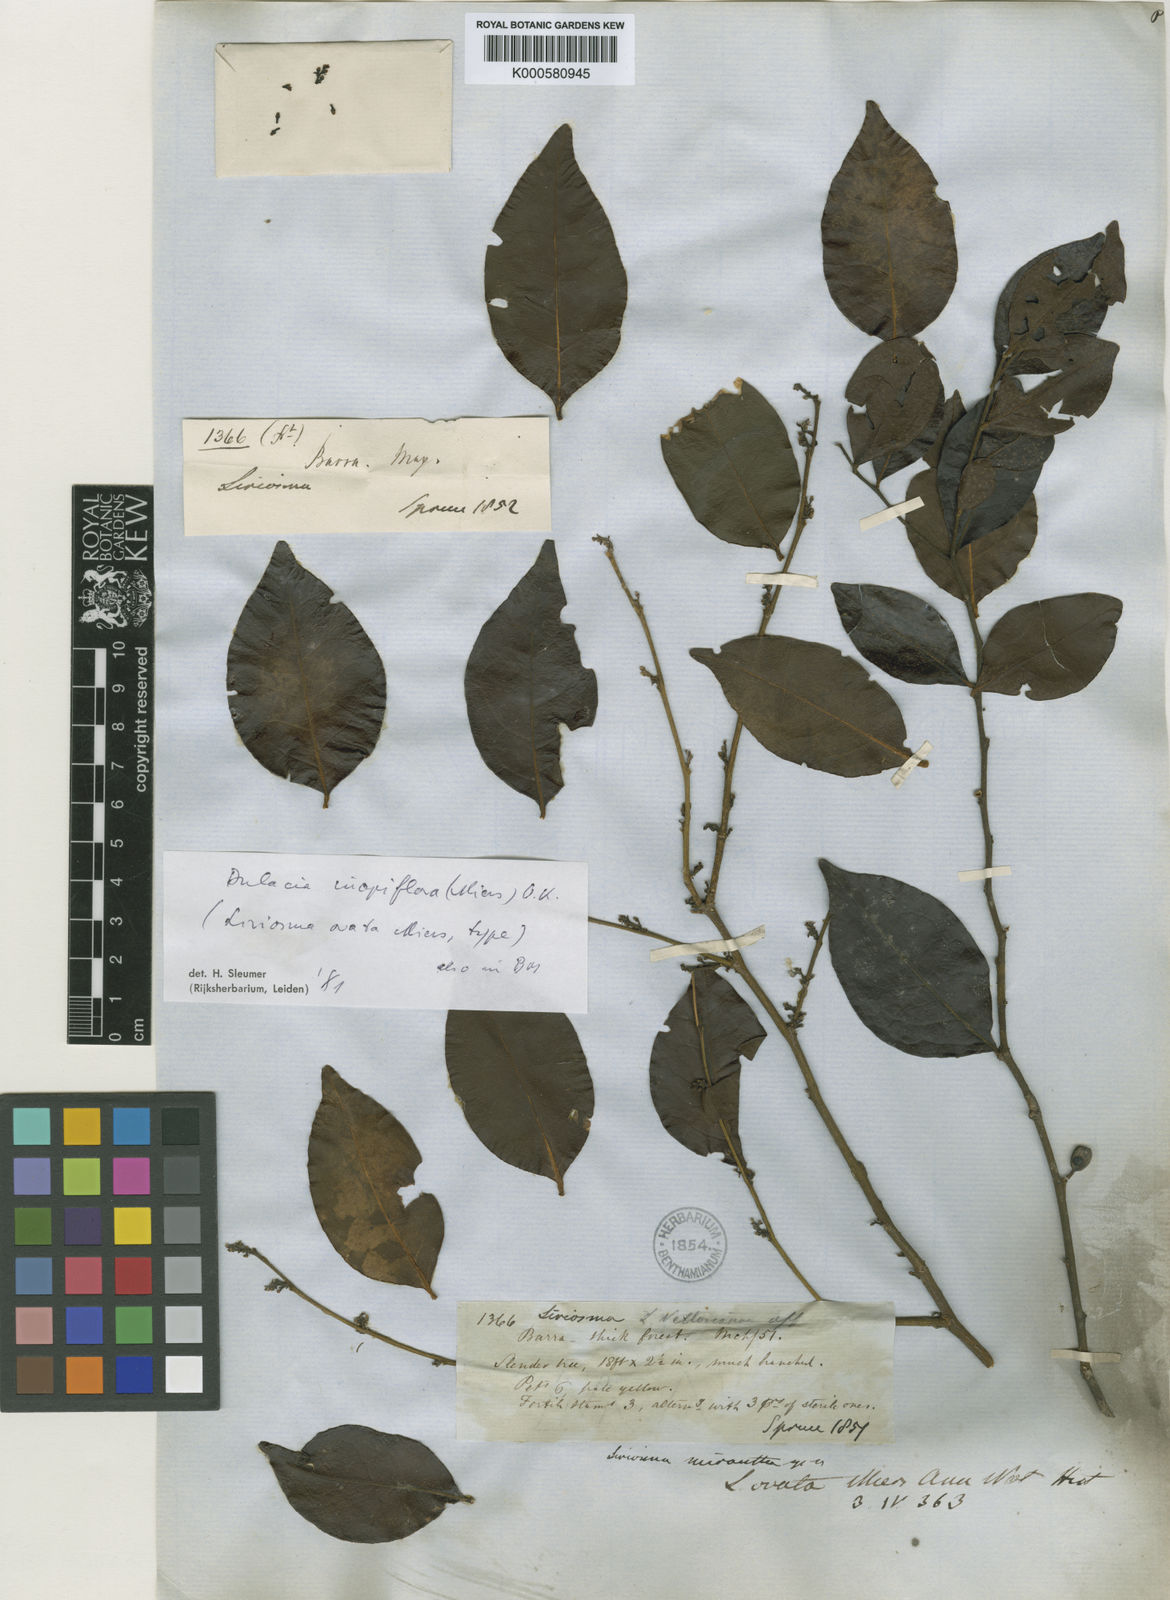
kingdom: Plantae
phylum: Tracheophyta
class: Magnoliopsida
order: Santalales
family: Olacaceae
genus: Dulacia
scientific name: Dulacia inopiflora
